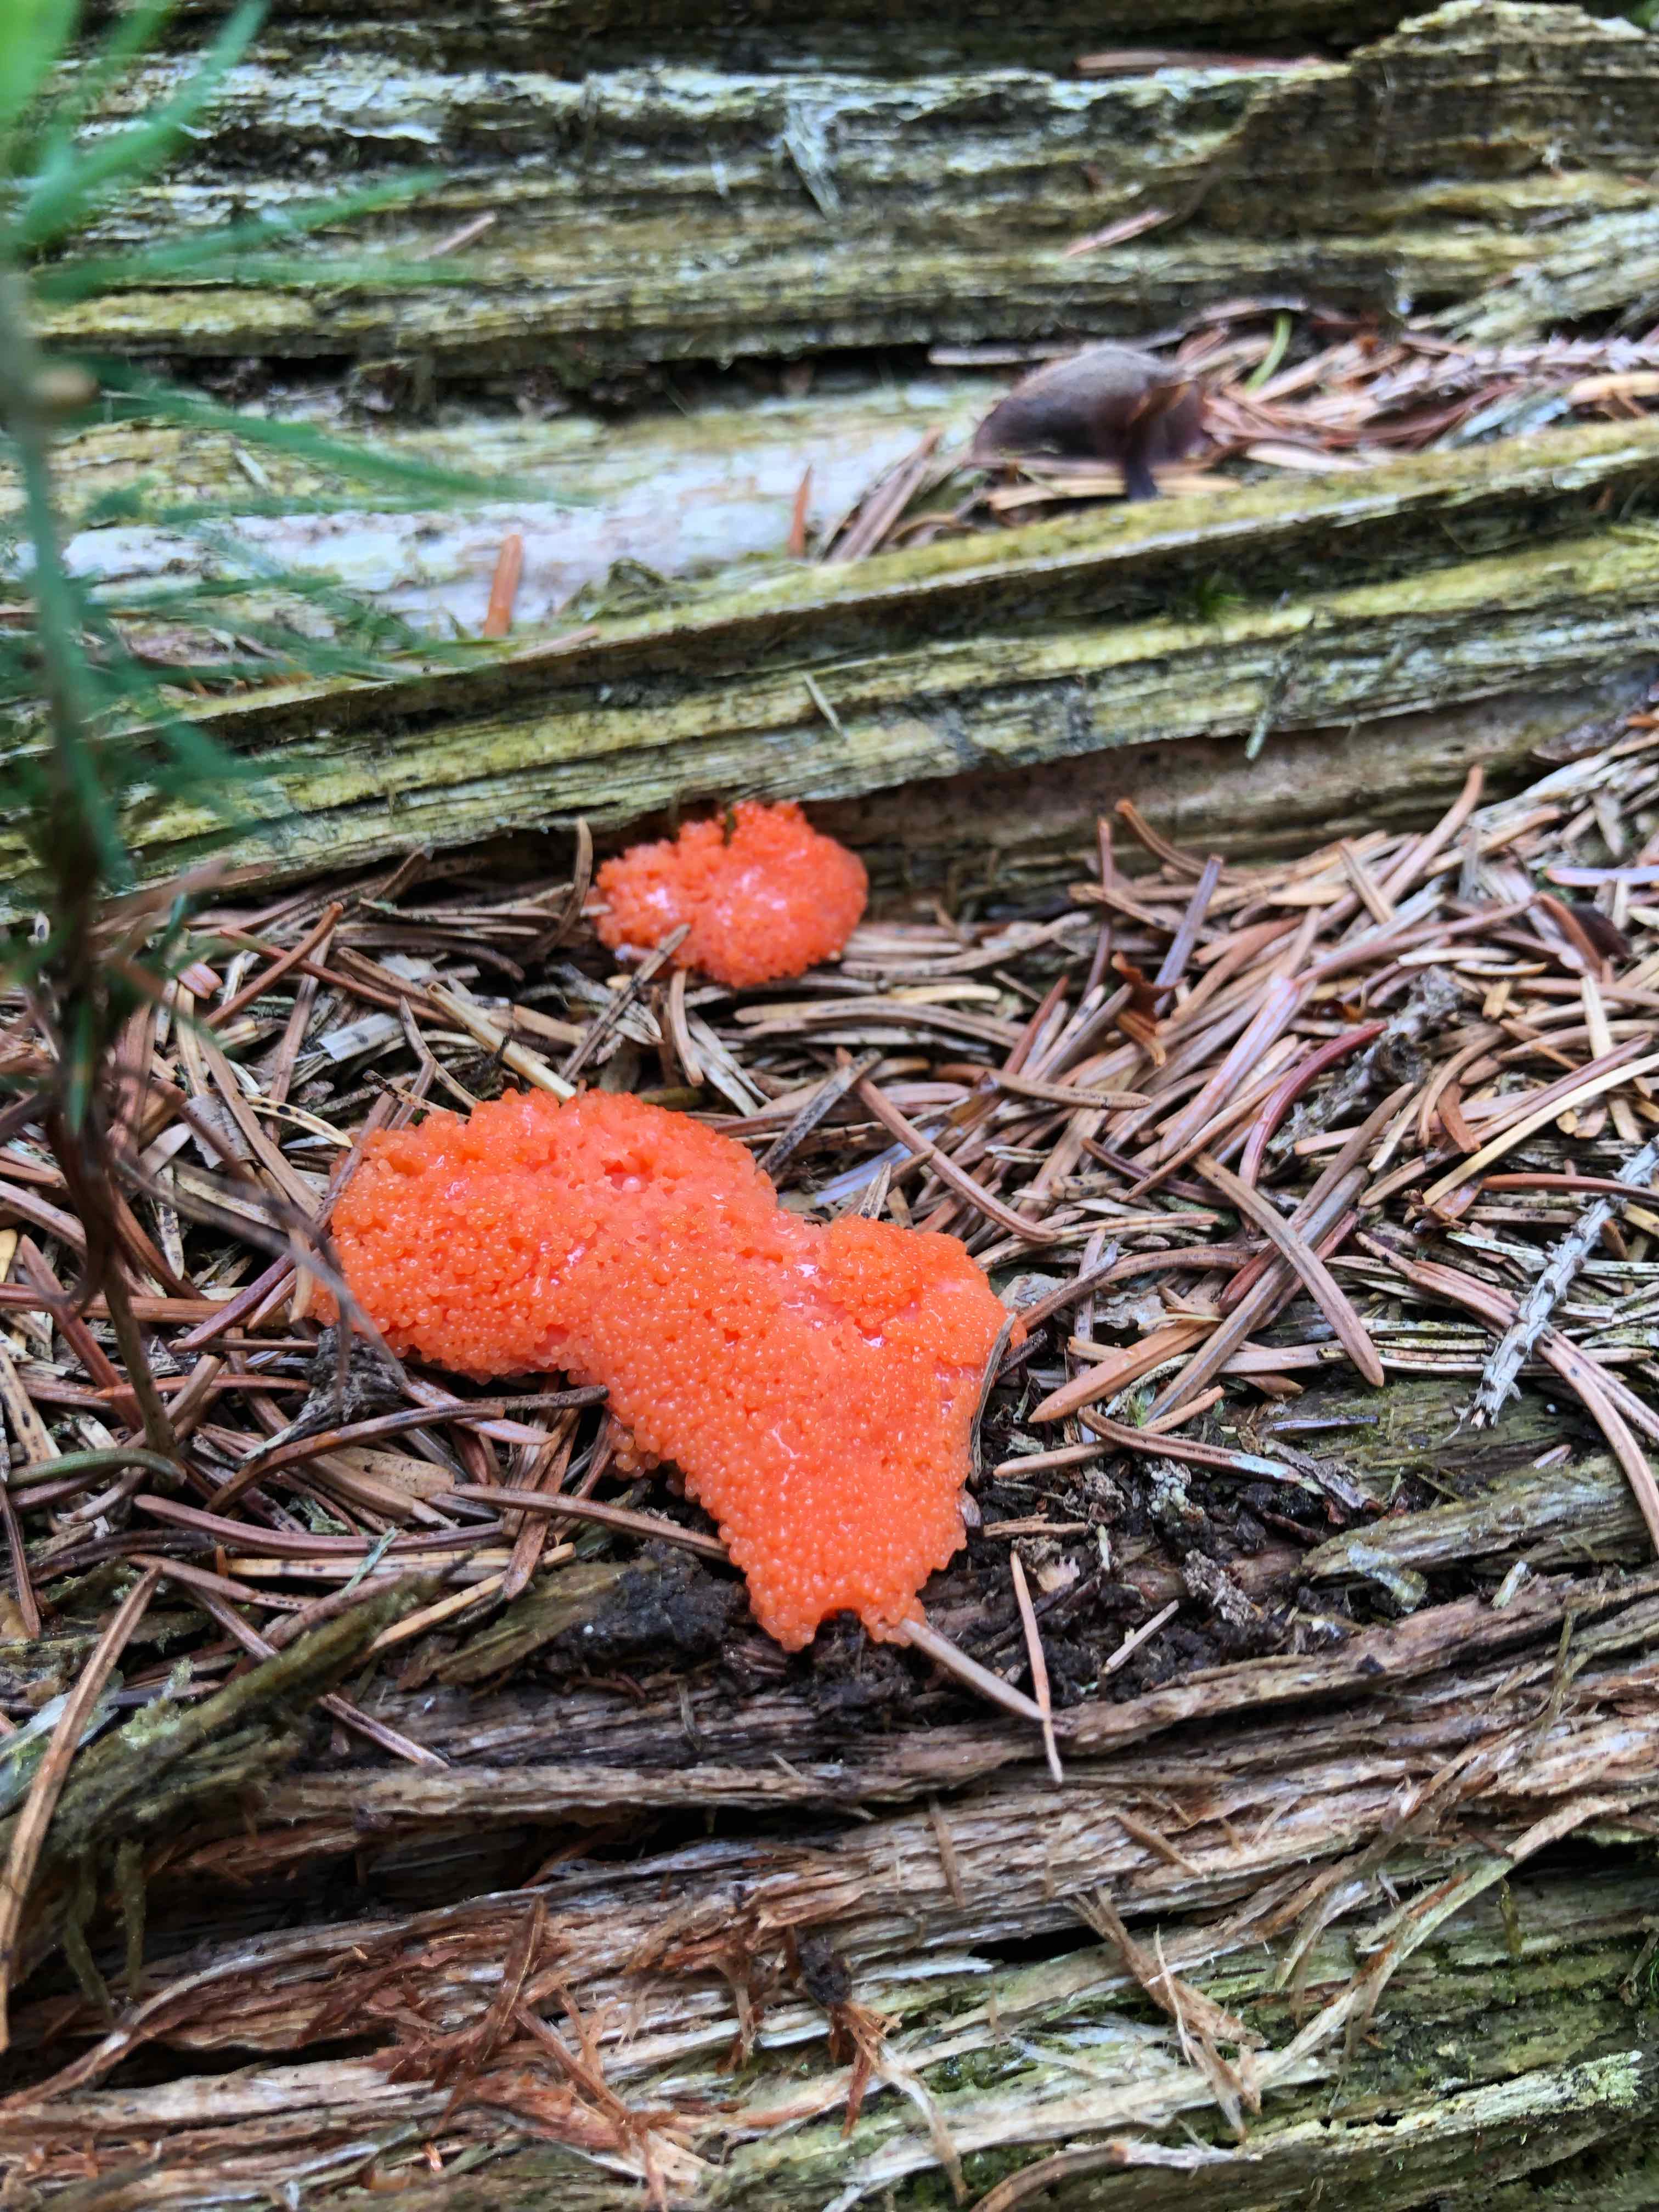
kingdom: Protozoa
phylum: Mycetozoa
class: Myxomycetes
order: Cribrariales
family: Tubiferaceae
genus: Tubifera
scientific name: Tubifera ferruginosa
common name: kanel-støvrør
